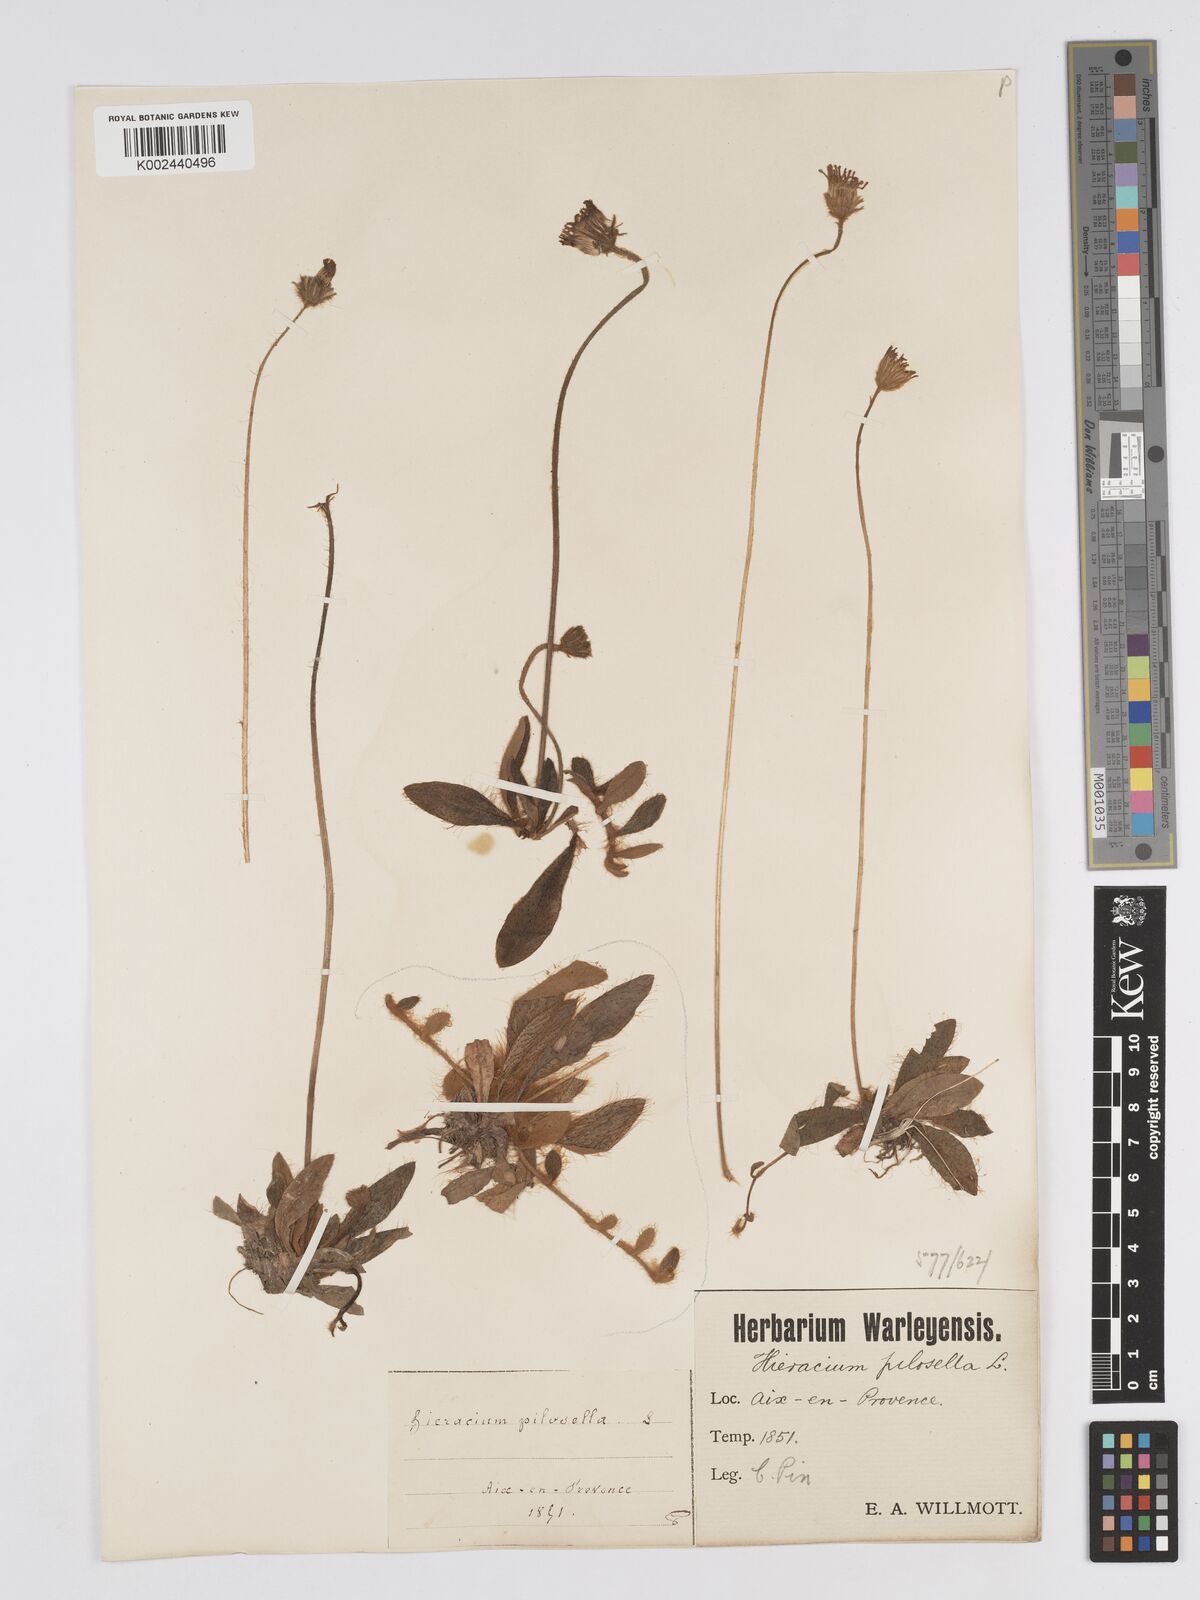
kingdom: Plantae
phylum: Tracheophyta
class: Magnoliopsida
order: Asterales
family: Asteraceae
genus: Pilosella
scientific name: Pilosella velutina
